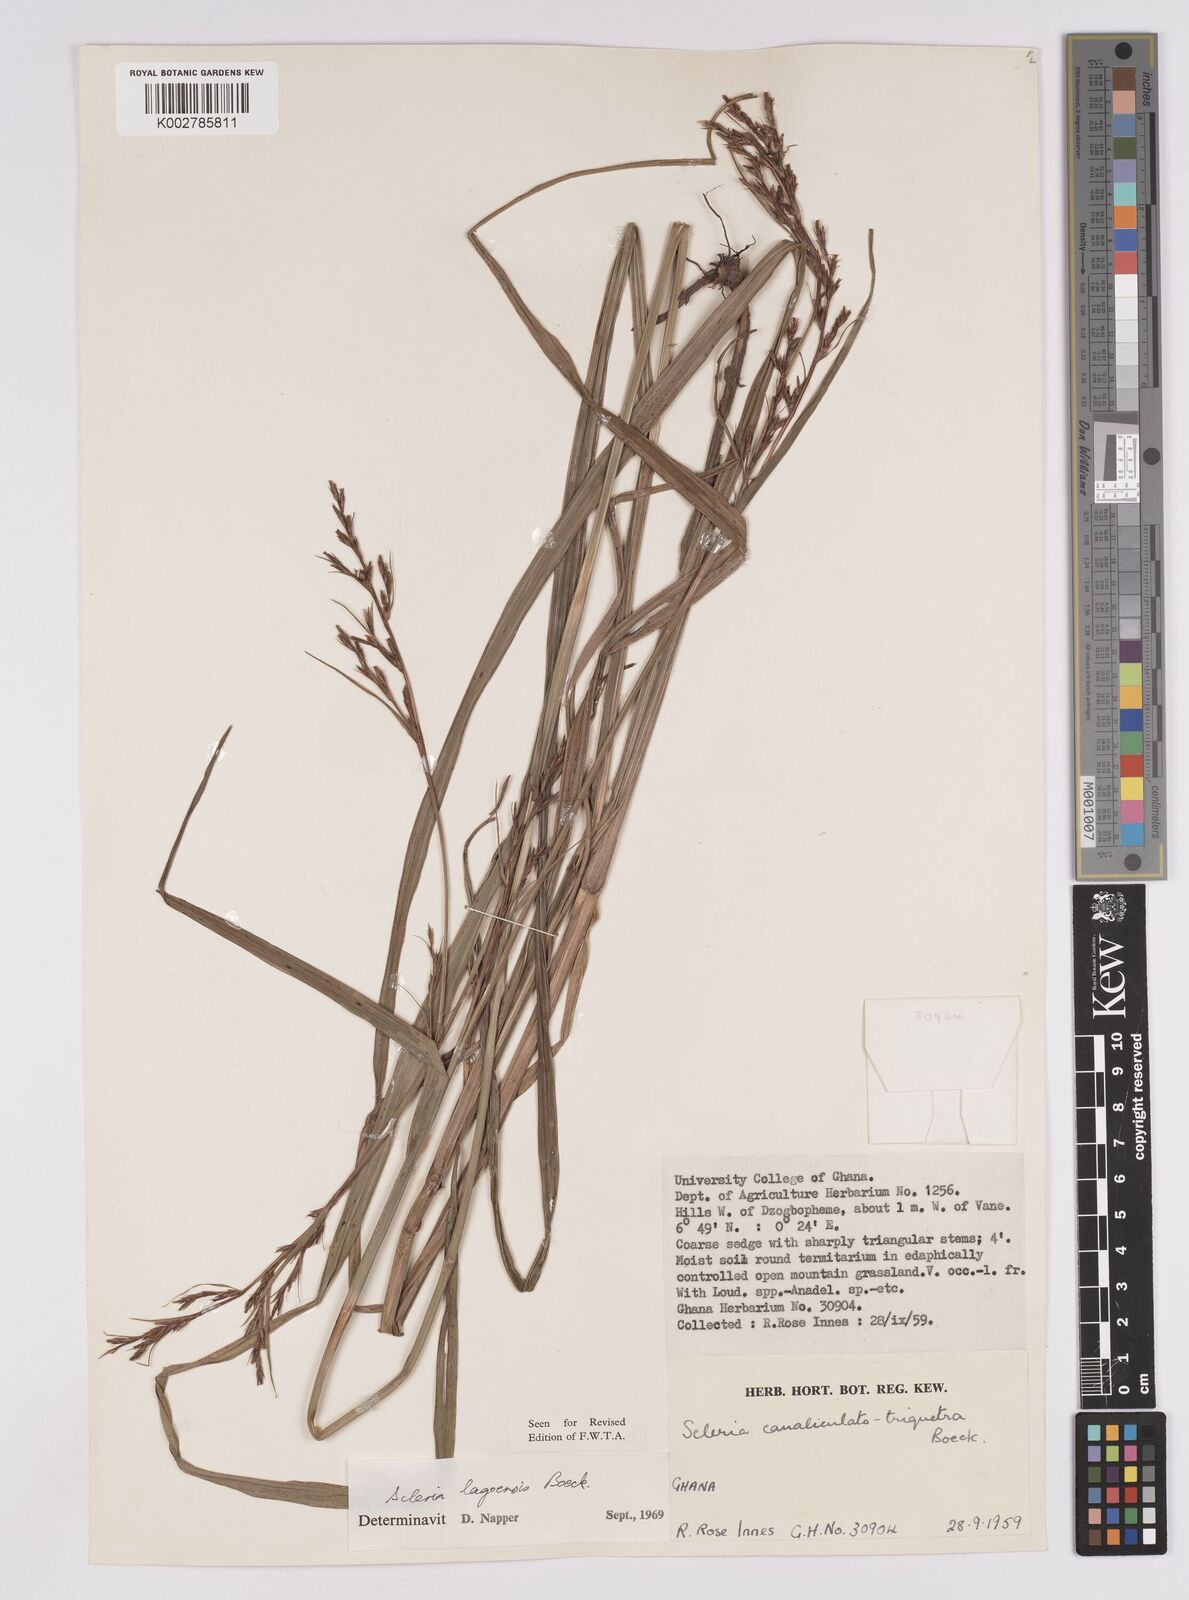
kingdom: Plantae
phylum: Tracheophyta
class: Liliopsida
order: Poales
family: Cyperaceae
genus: Scleria
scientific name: Scleria lagoensis
